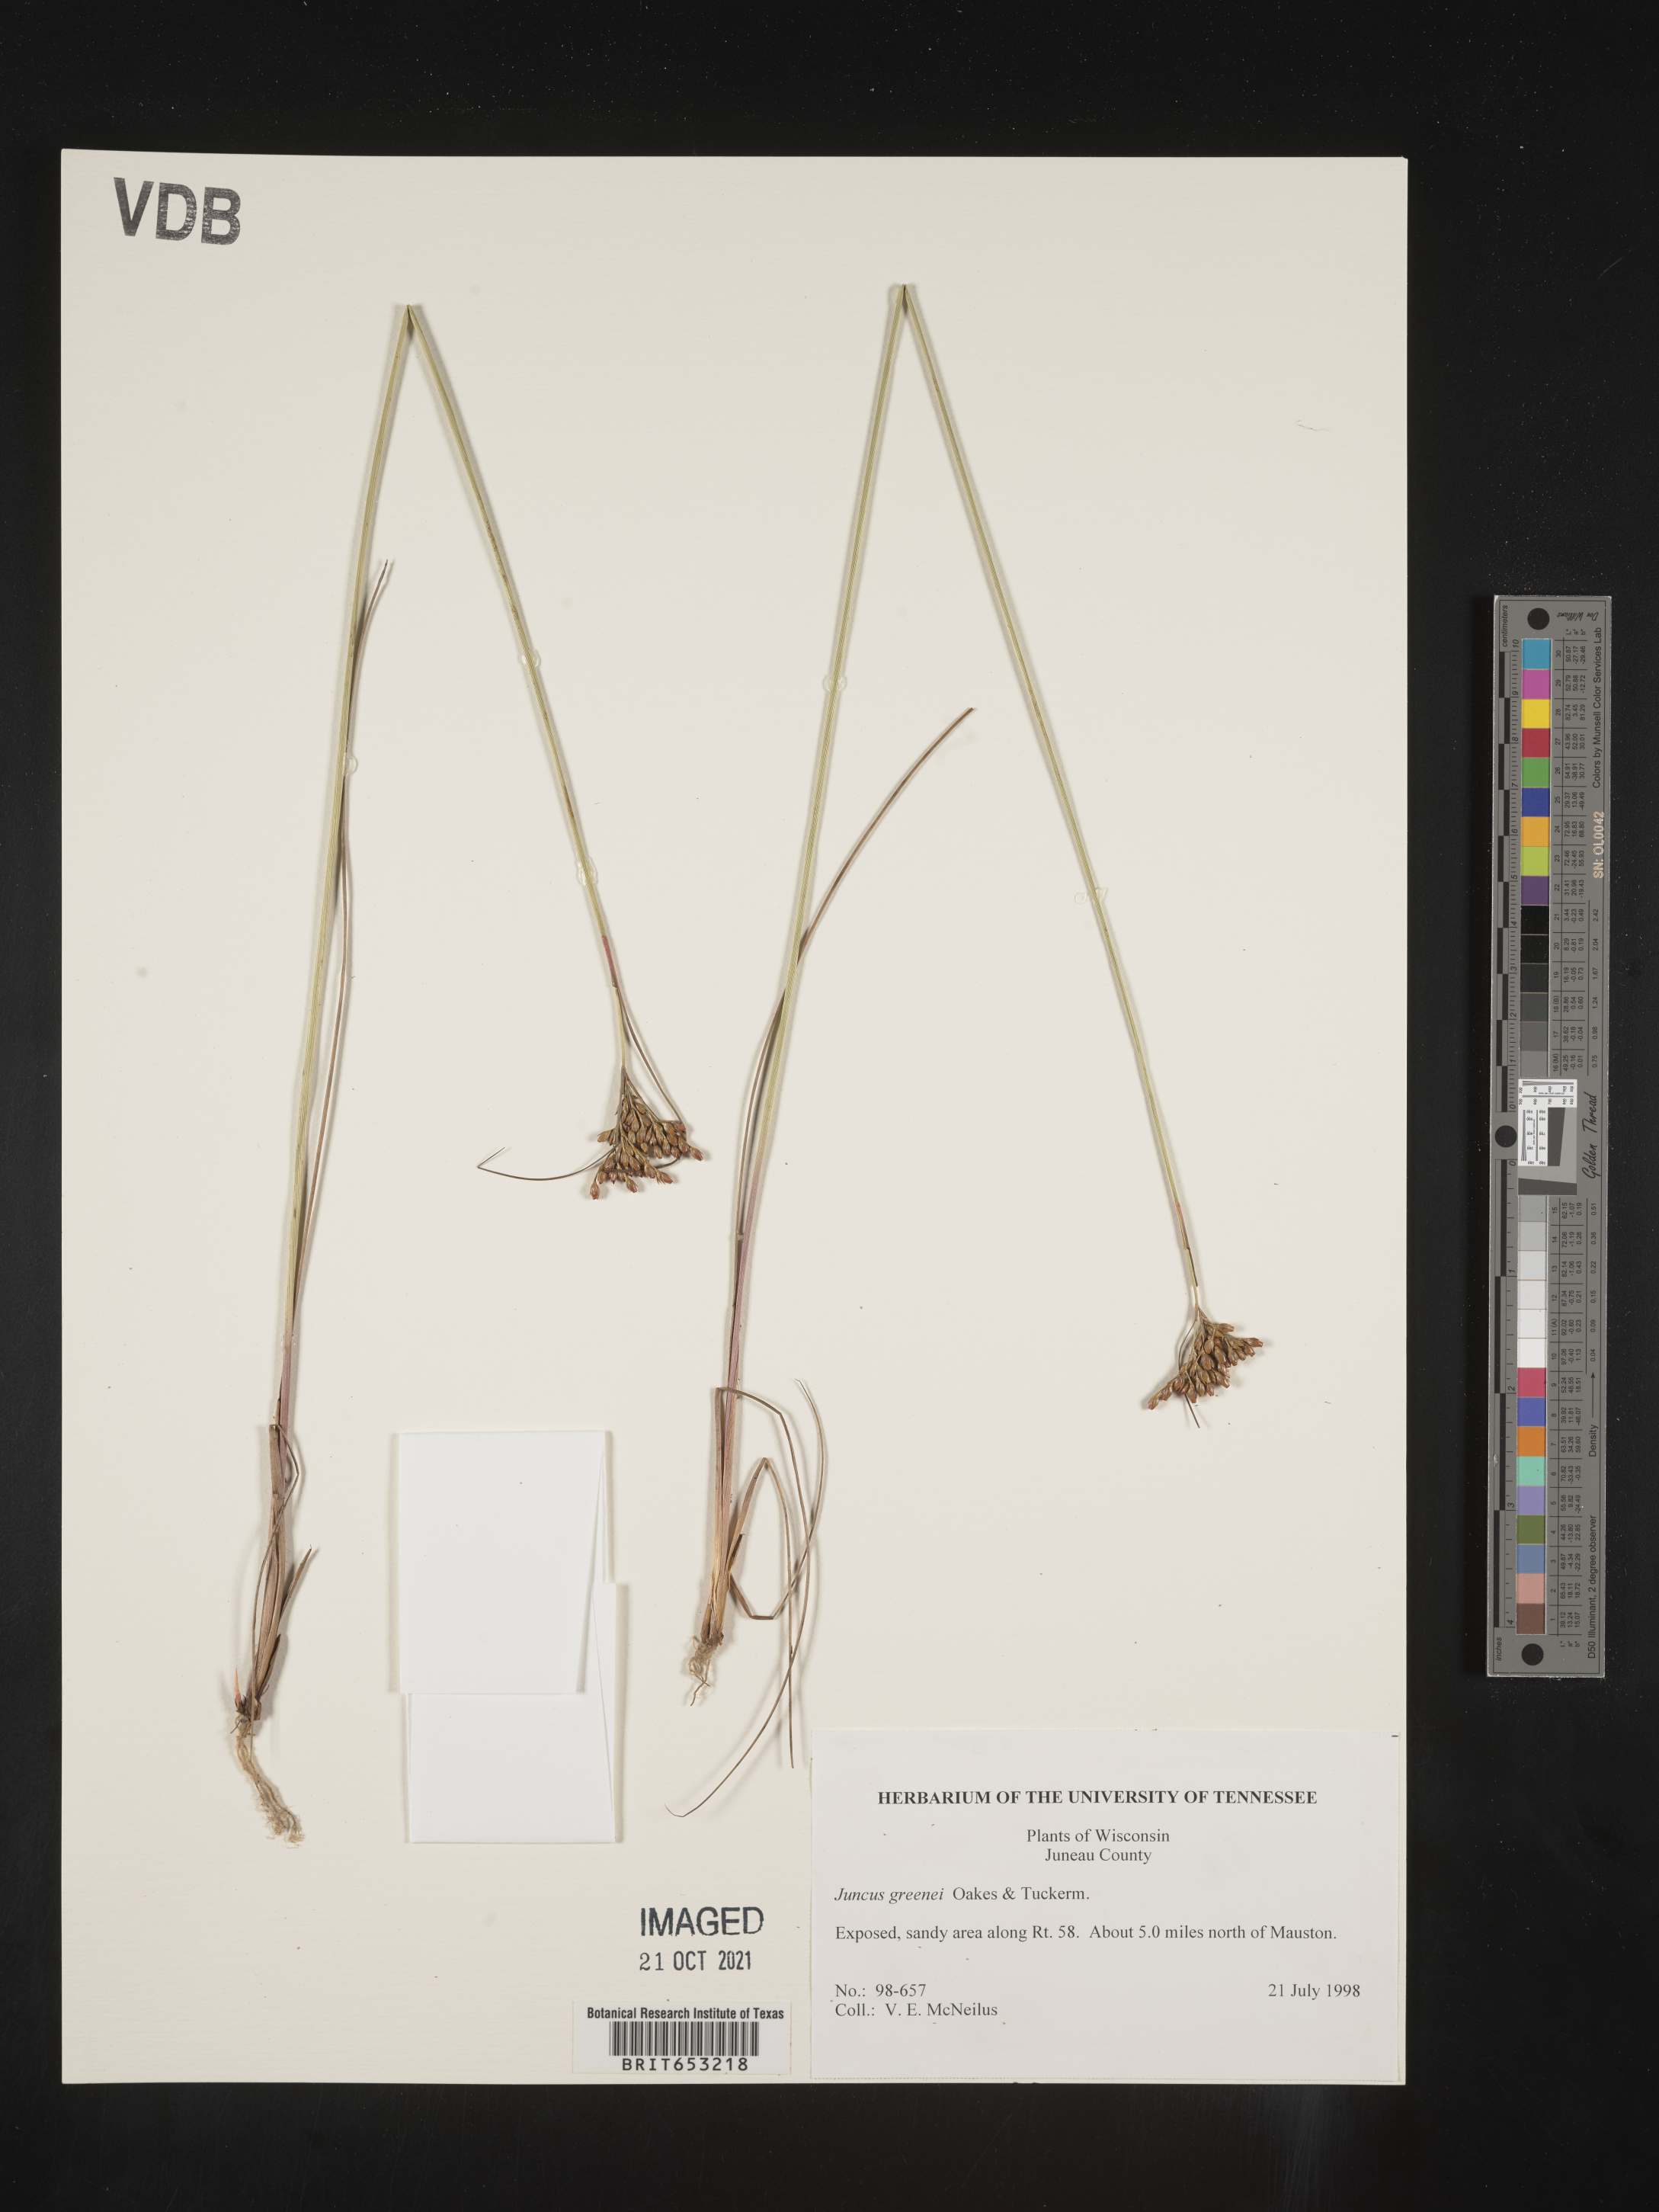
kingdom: Plantae
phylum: Tracheophyta
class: Liliopsida
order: Poales
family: Juncaceae
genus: Juncus
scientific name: Juncus greenei
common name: Greene's rush
